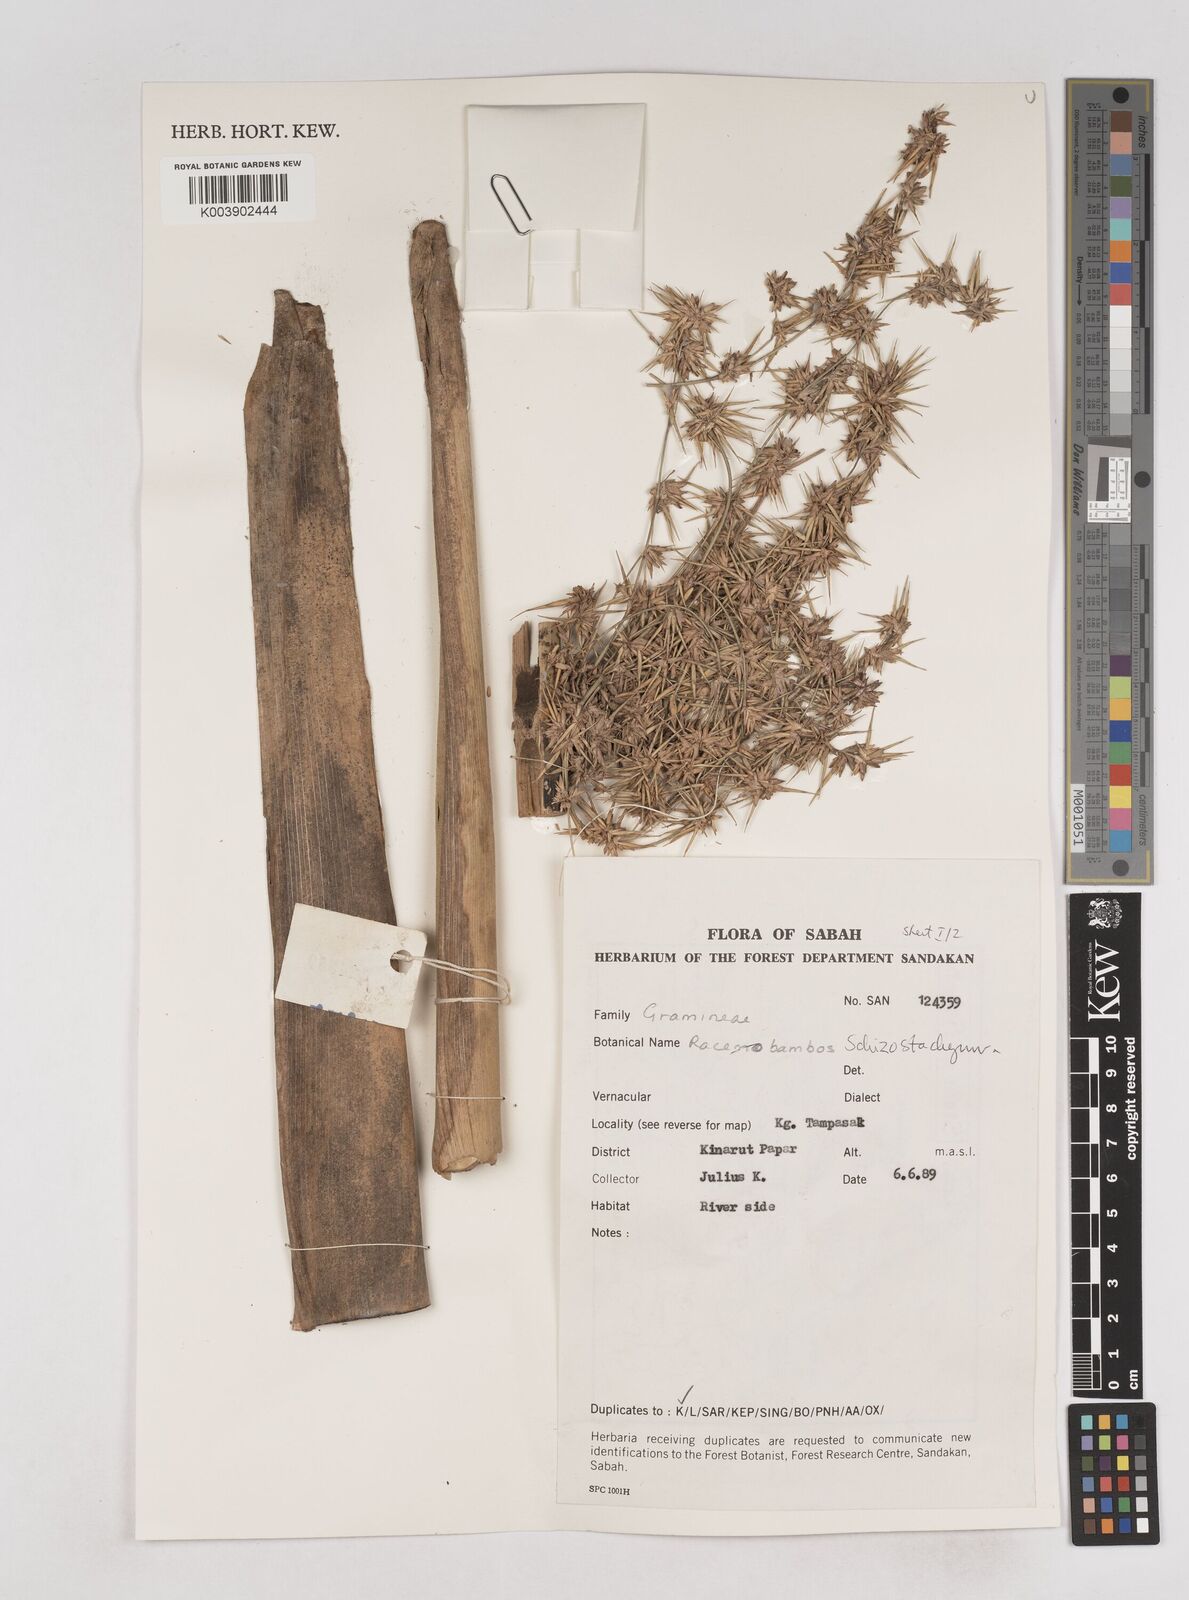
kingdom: Plantae
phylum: Tracheophyta
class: Liliopsida
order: Poales
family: Poaceae
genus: Schizostachyum
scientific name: Schizostachyum
